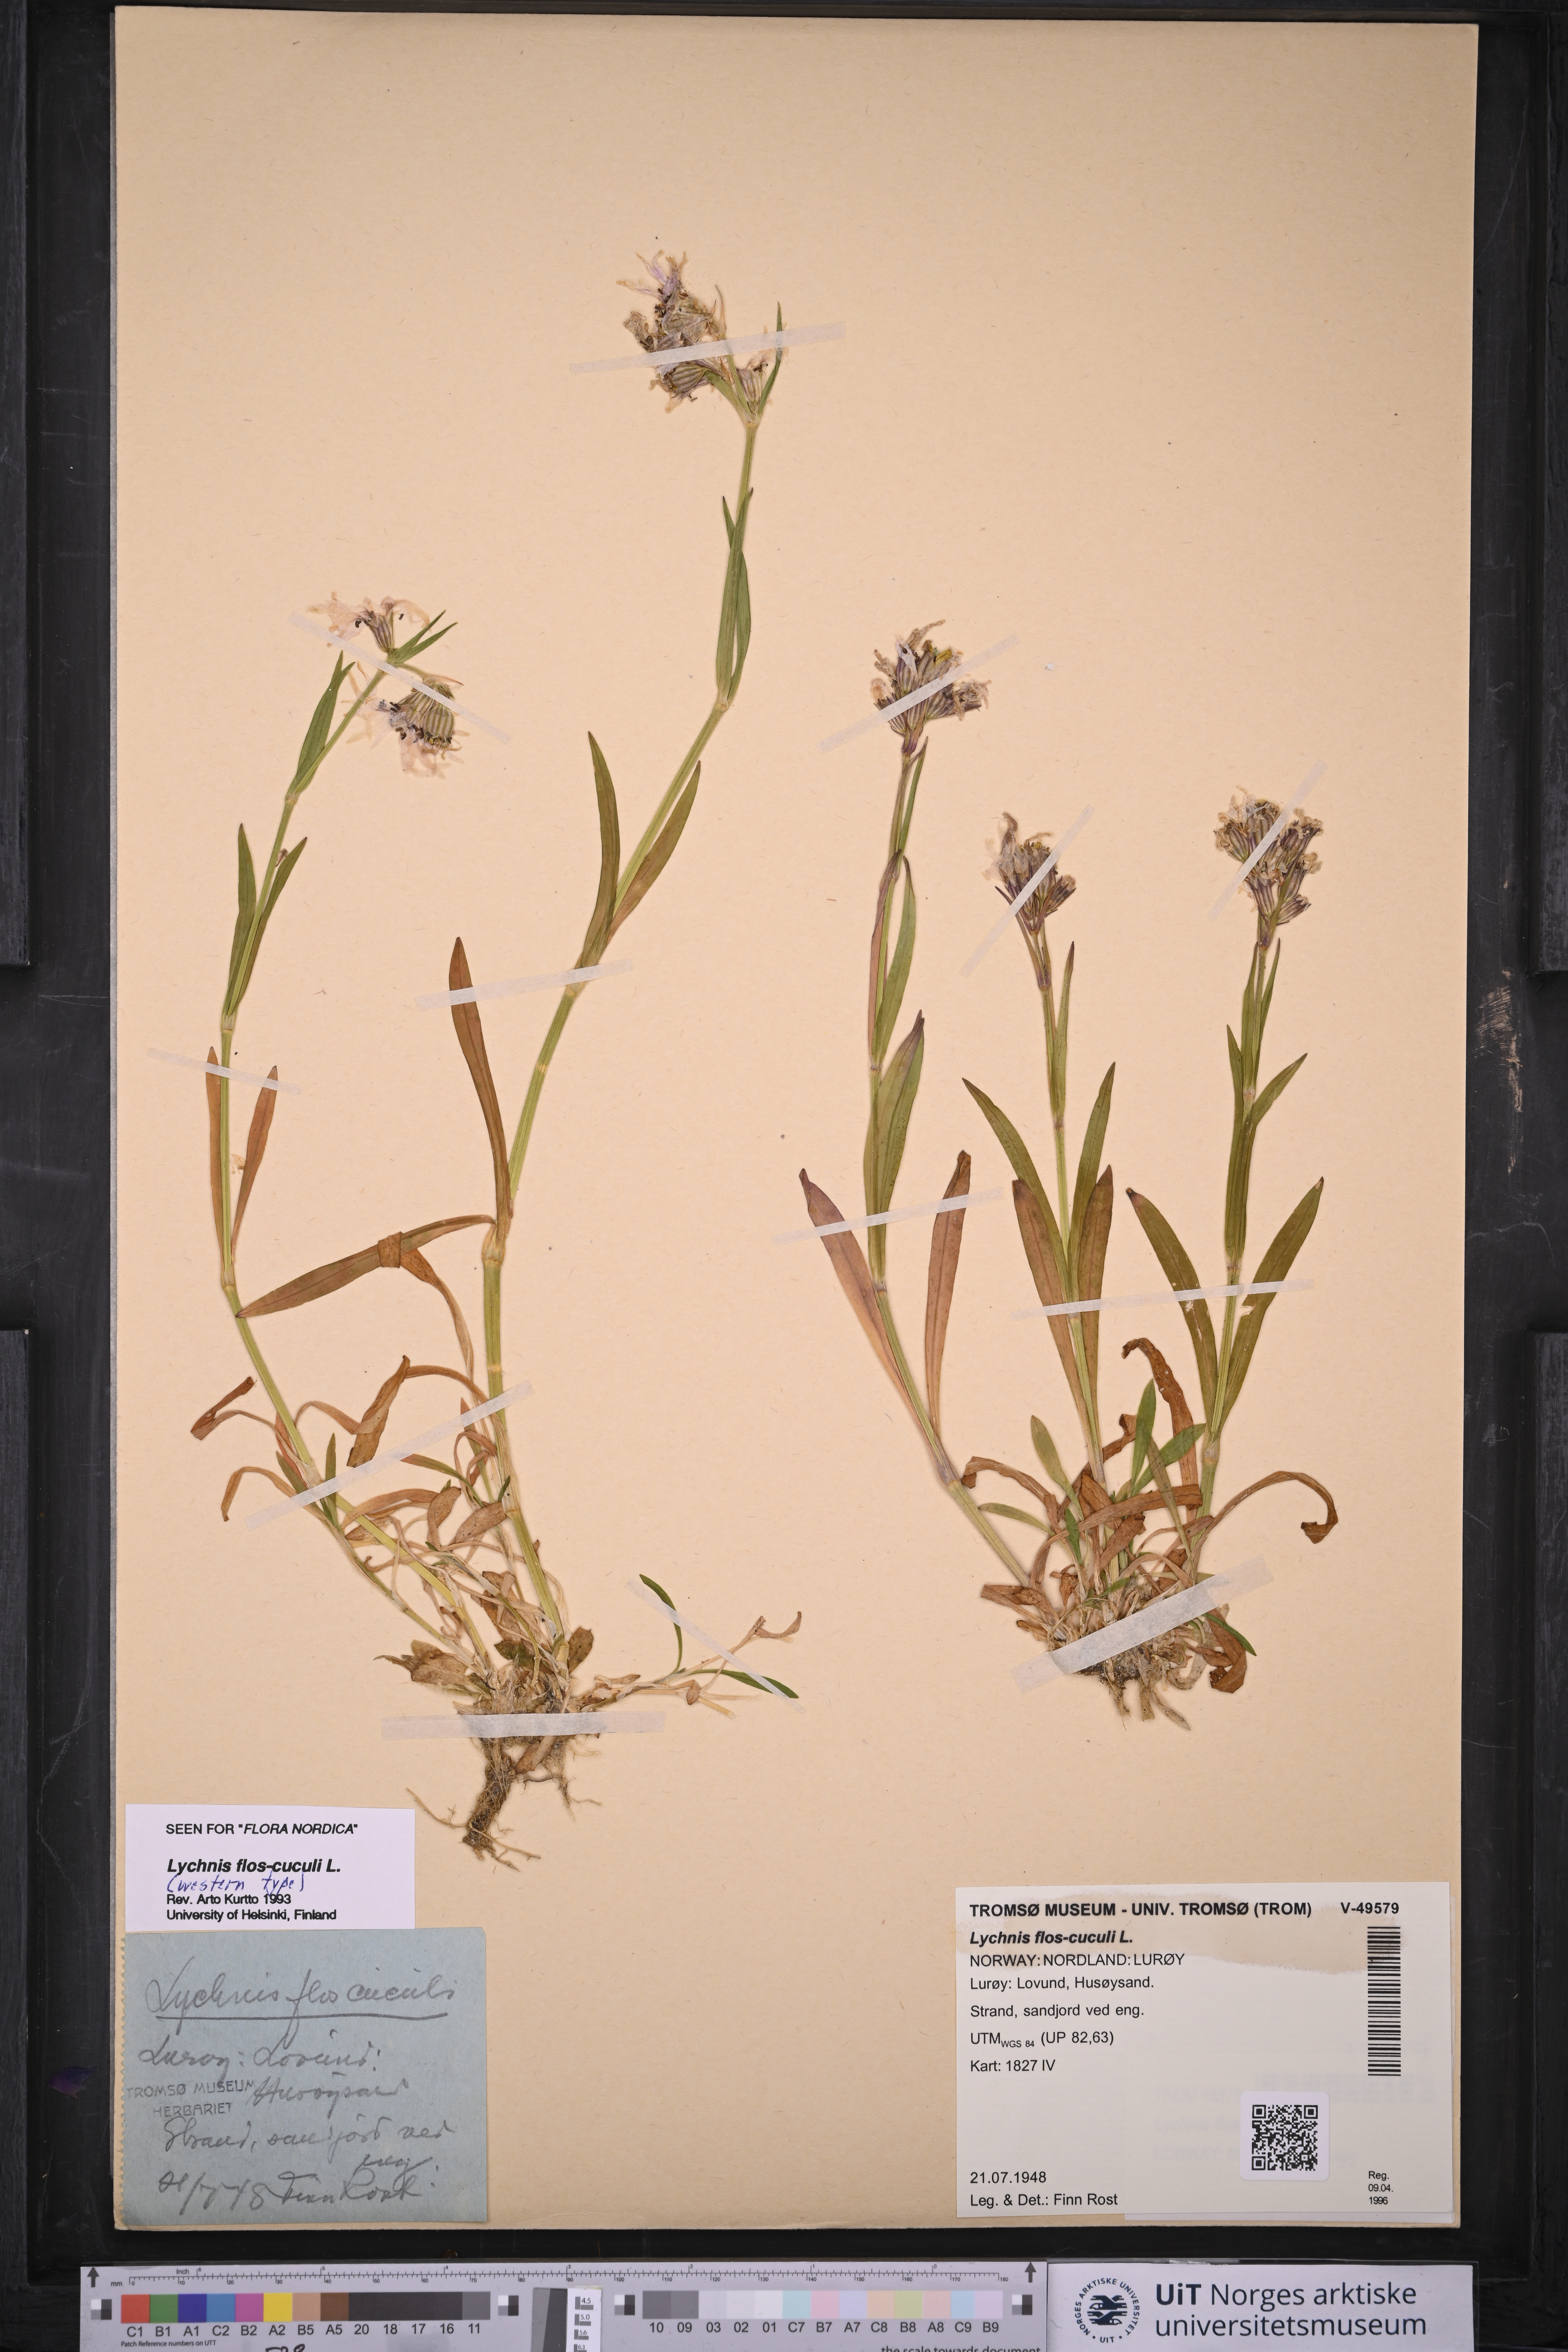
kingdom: Plantae
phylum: Tracheophyta
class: Magnoliopsida
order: Caryophyllales
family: Caryophyllaceae
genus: Silene
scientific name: Silene flos-cuculi
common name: Ragged-robin
